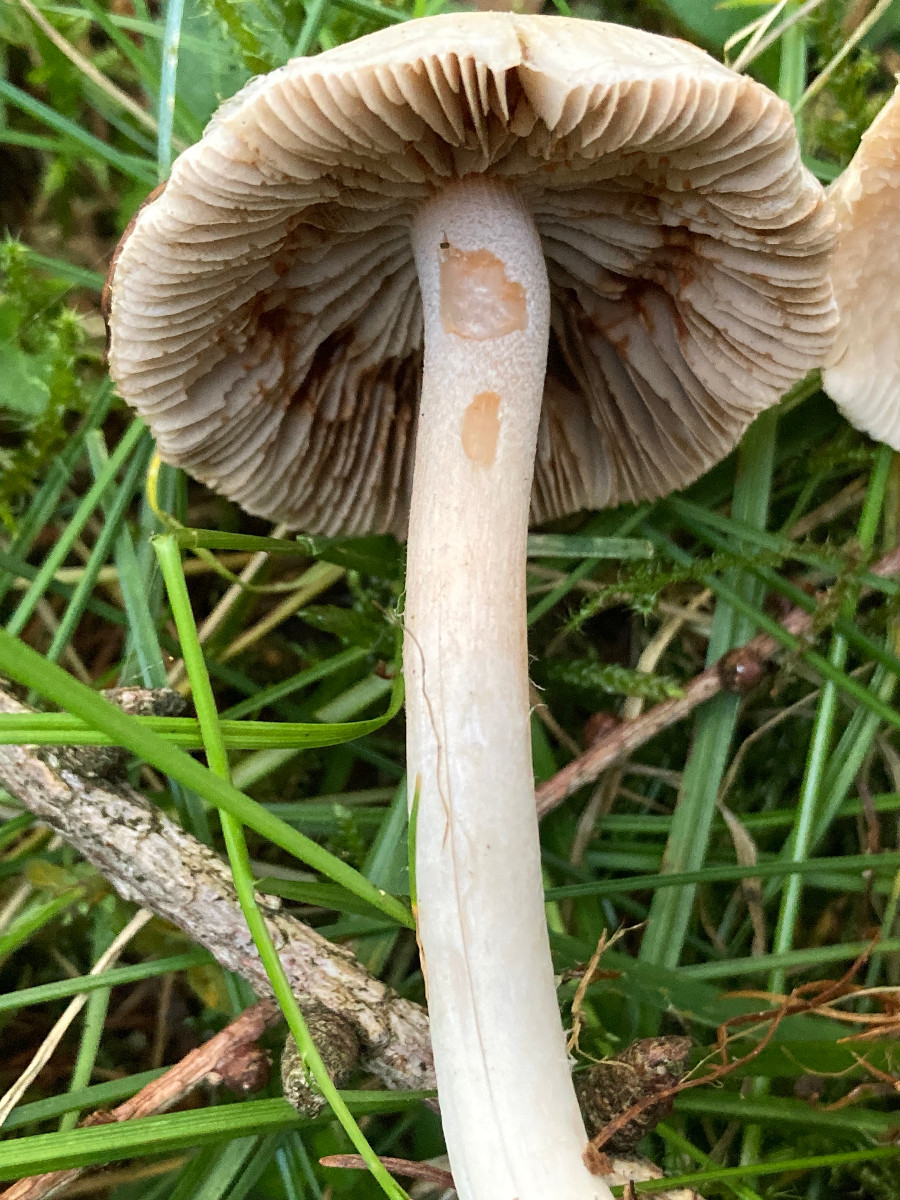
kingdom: Fungi
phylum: Basidiomycota
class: Agaricomycetes
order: Agaricales
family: Inocybaceae
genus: Inocybe
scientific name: Inocybe whitei
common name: rødmende trævlhat
